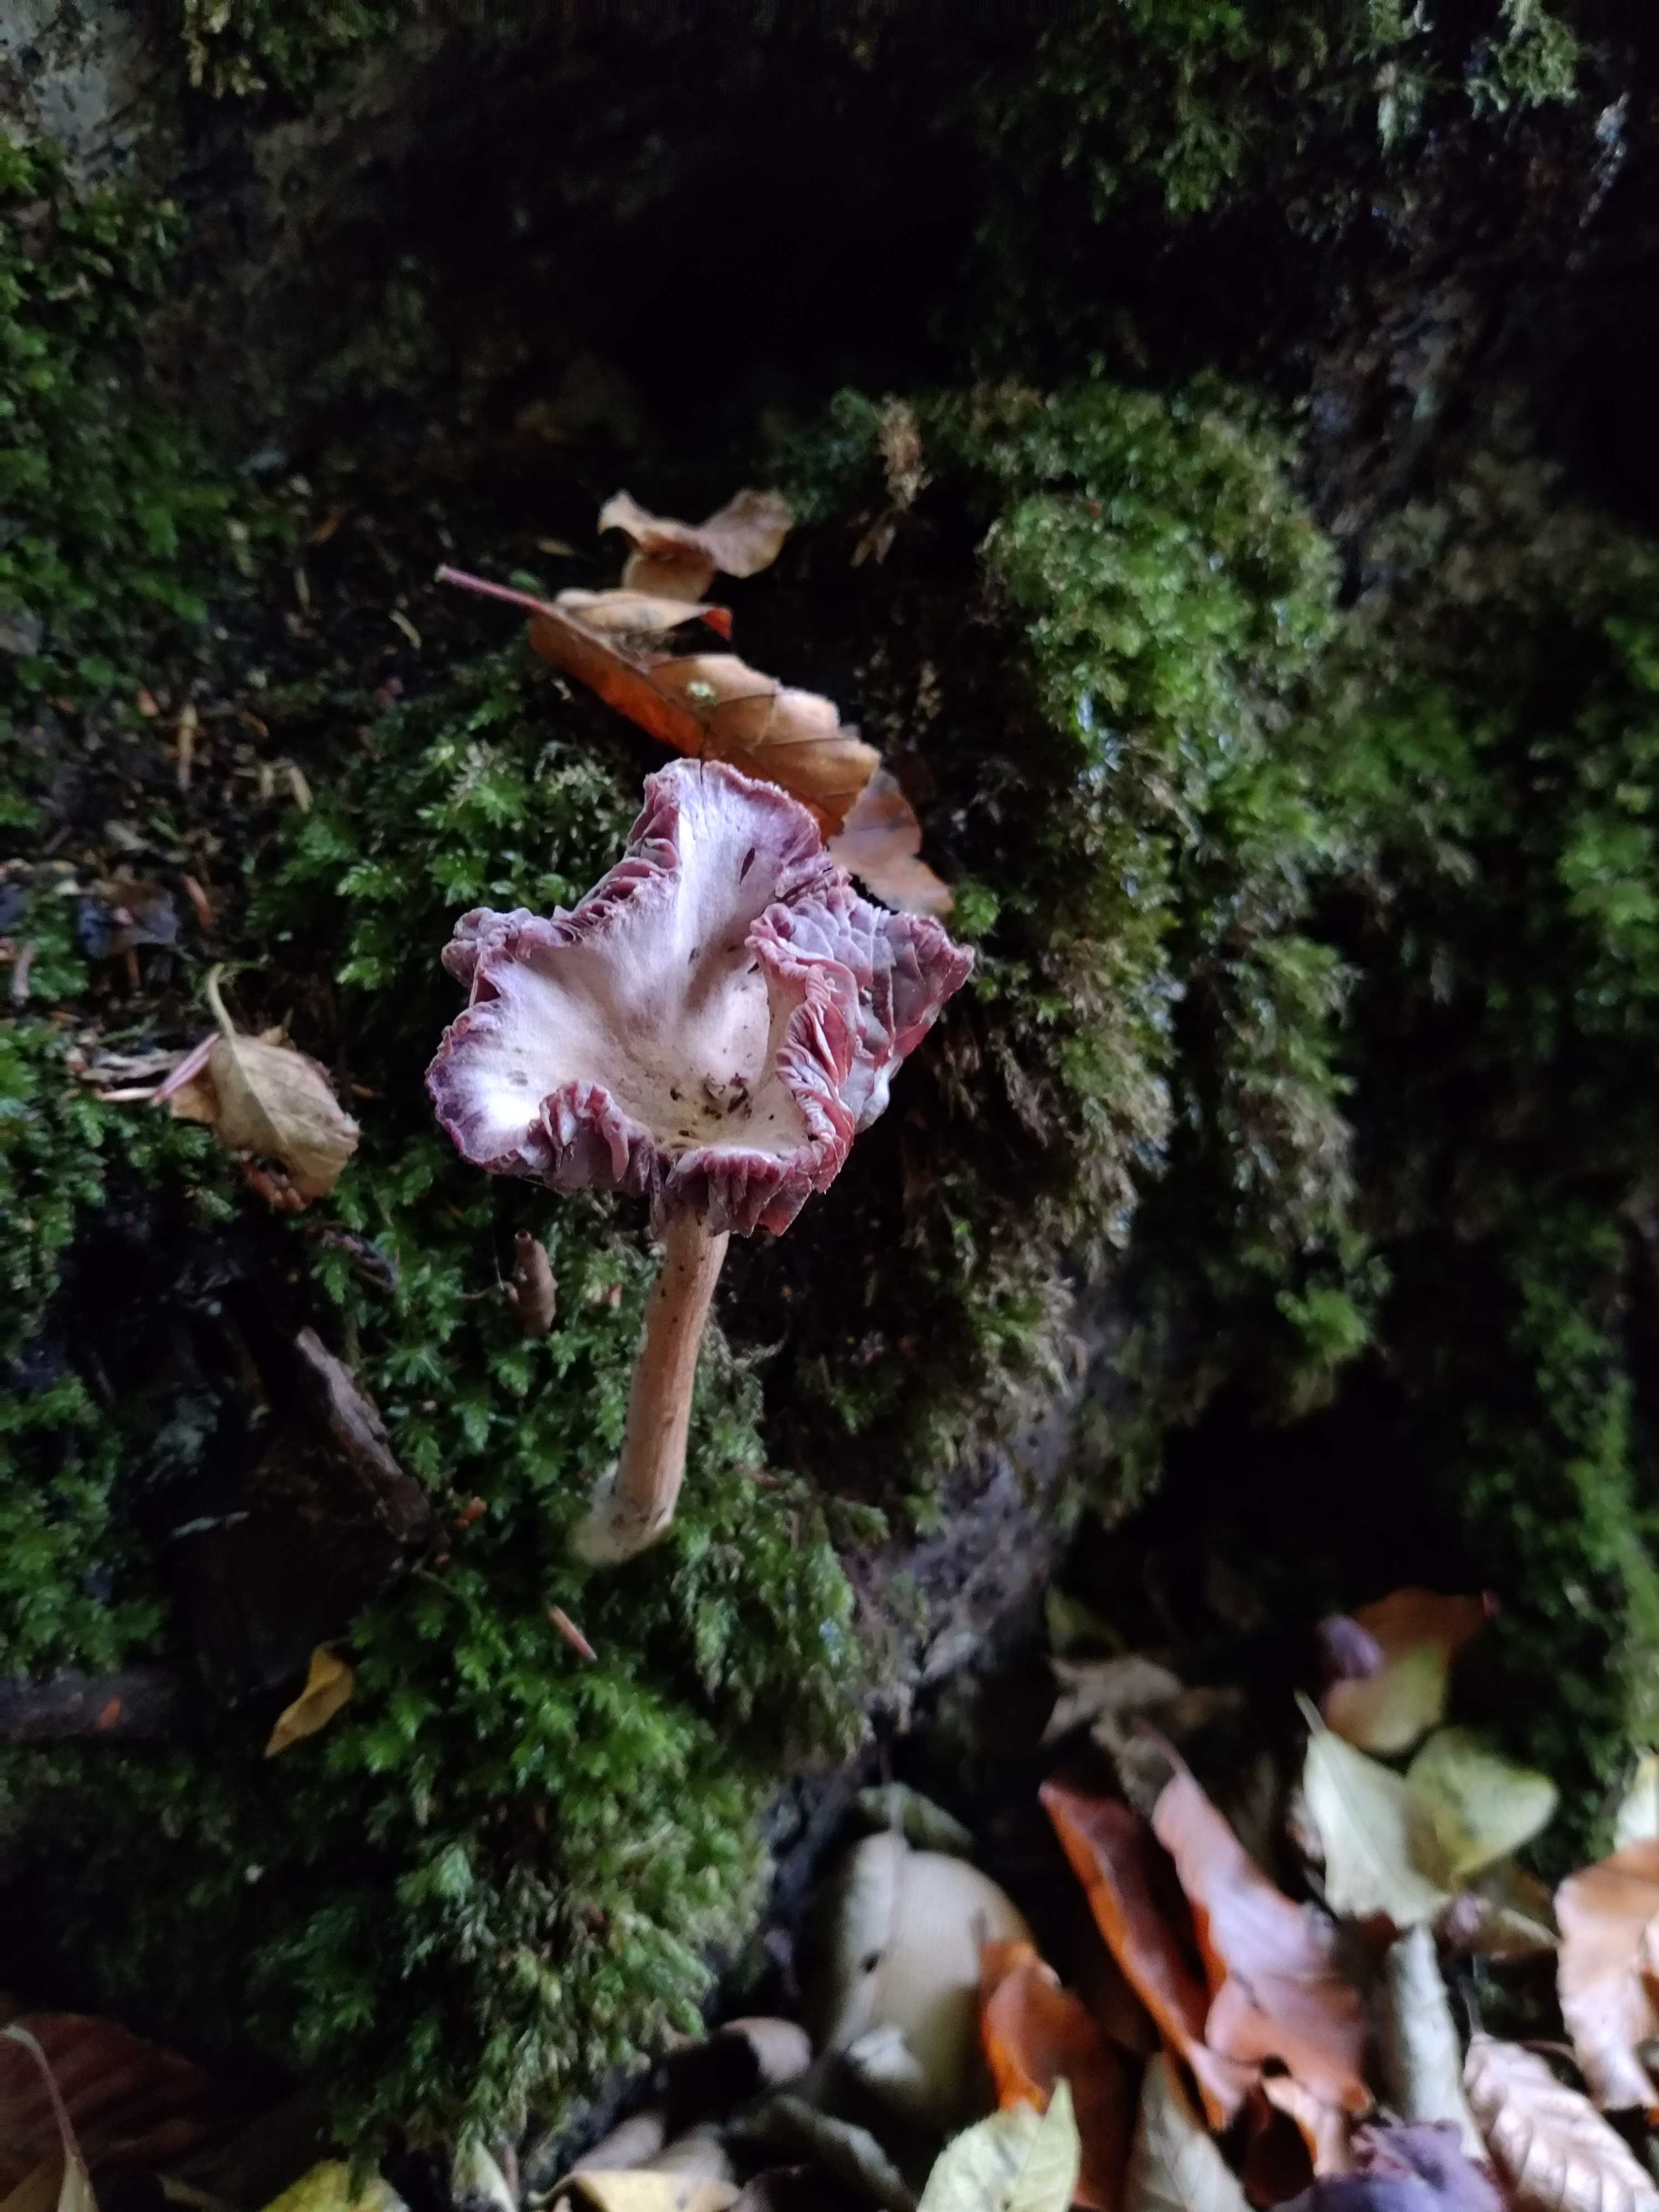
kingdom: Fungi
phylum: Basidiomycota
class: Agaricomycetes
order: Agaricales
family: Hydnangiaceae
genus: Laccaria
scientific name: Laccaria amethystina
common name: violet ametysthat
